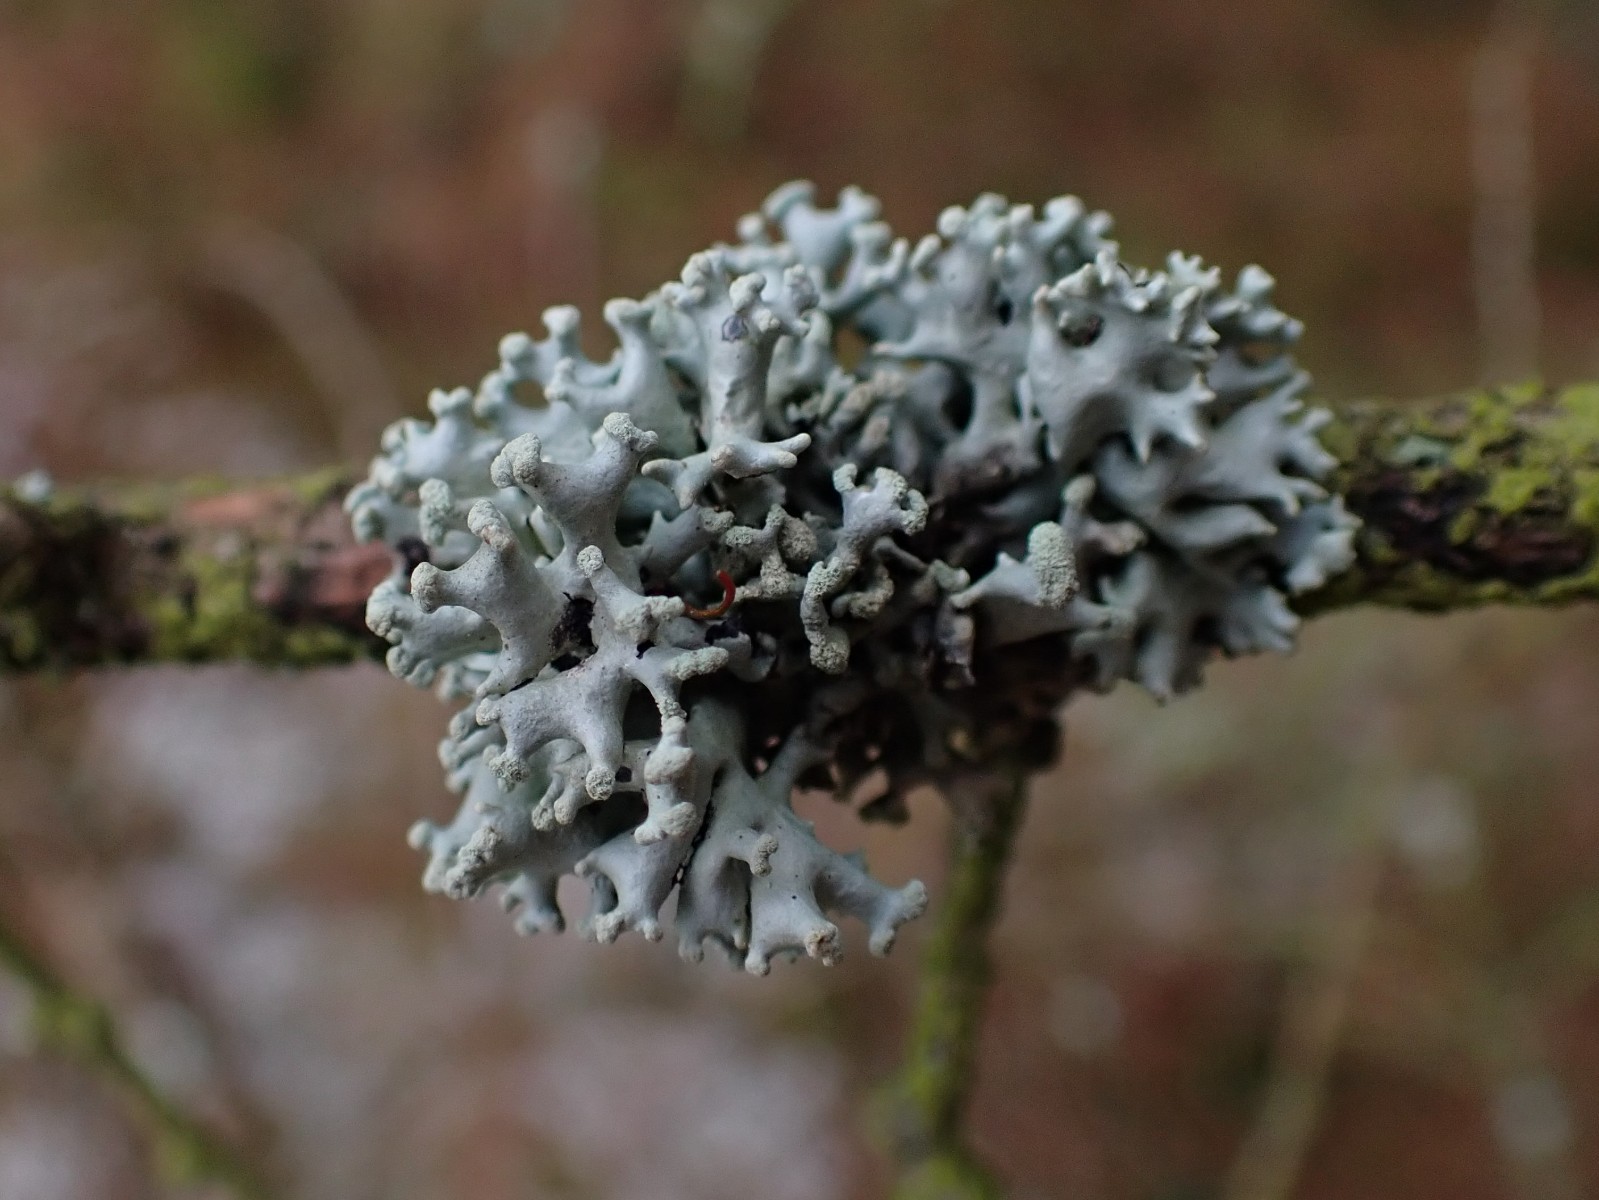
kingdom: Fungi
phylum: Ascomycota
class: Lecanoromycetes
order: Lecanorales
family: Parmeliaceae
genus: Hypogymnia
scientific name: Hypogymnia tubulosa
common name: finger-kvistlav
